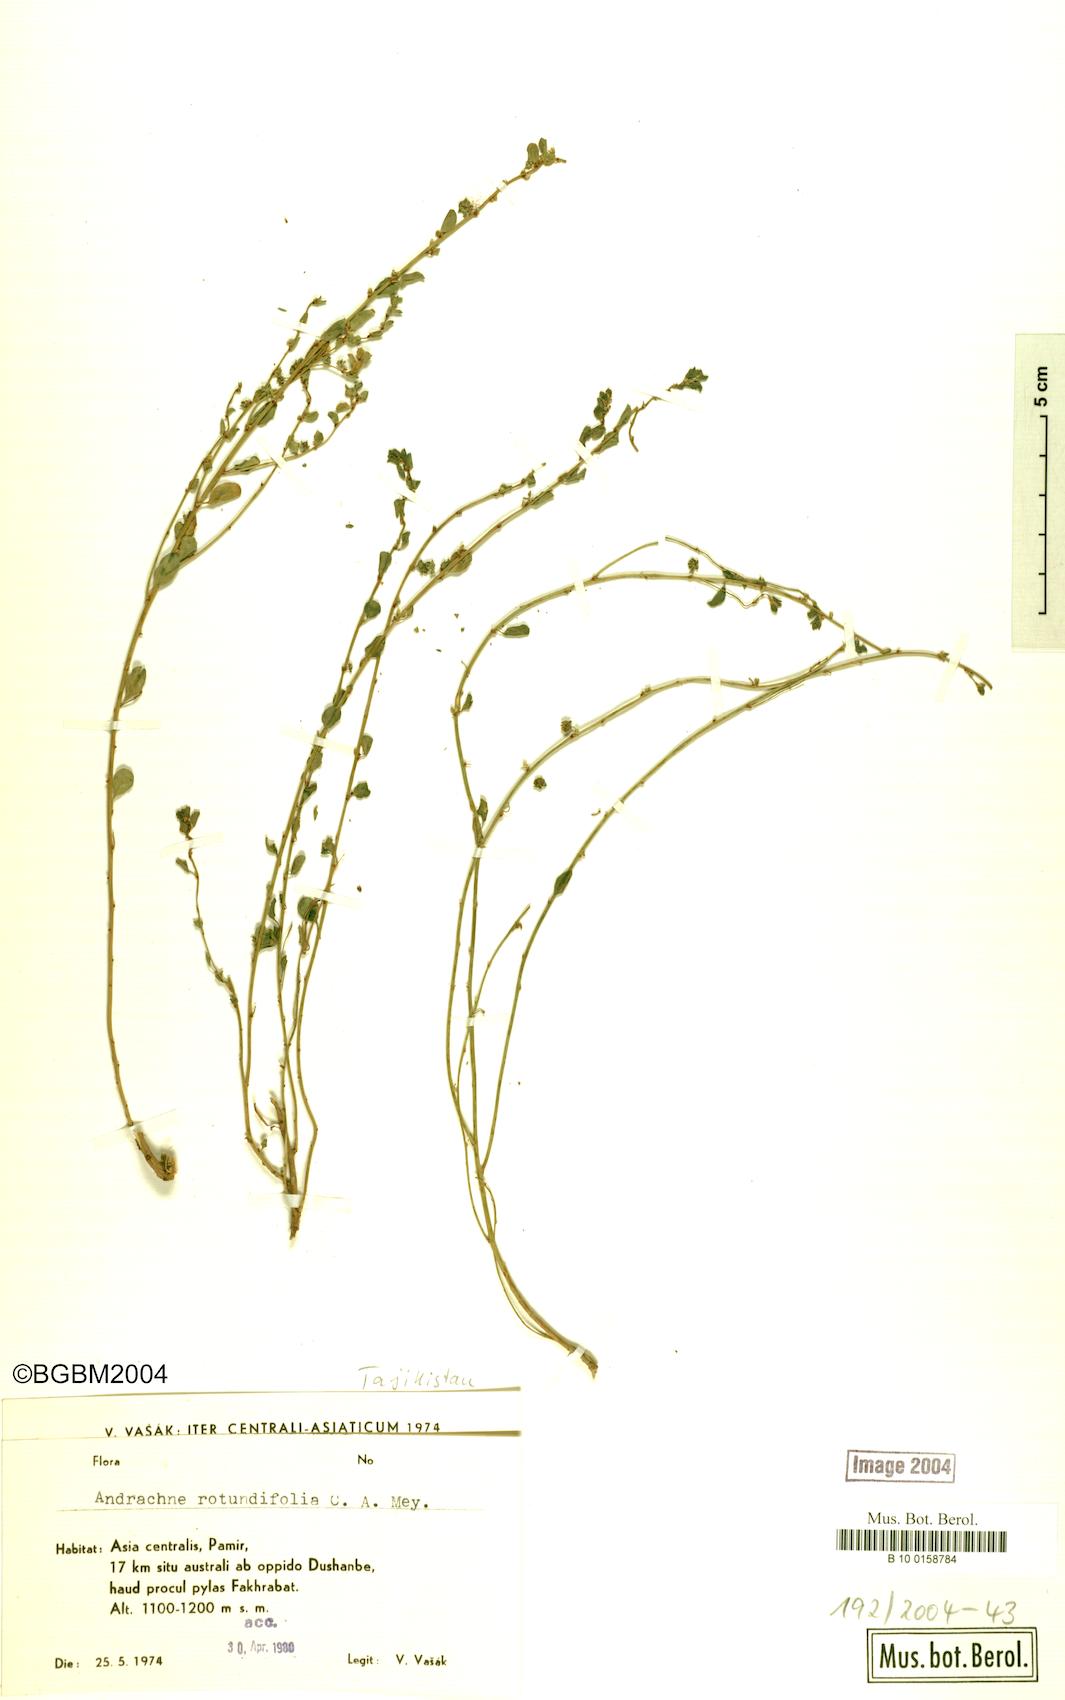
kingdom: Plantae
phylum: Tracheophyta
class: Magnoliopsida
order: Malpighiales
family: Phyllanthaceae
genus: Andrachne
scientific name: Andrachne telephioides
